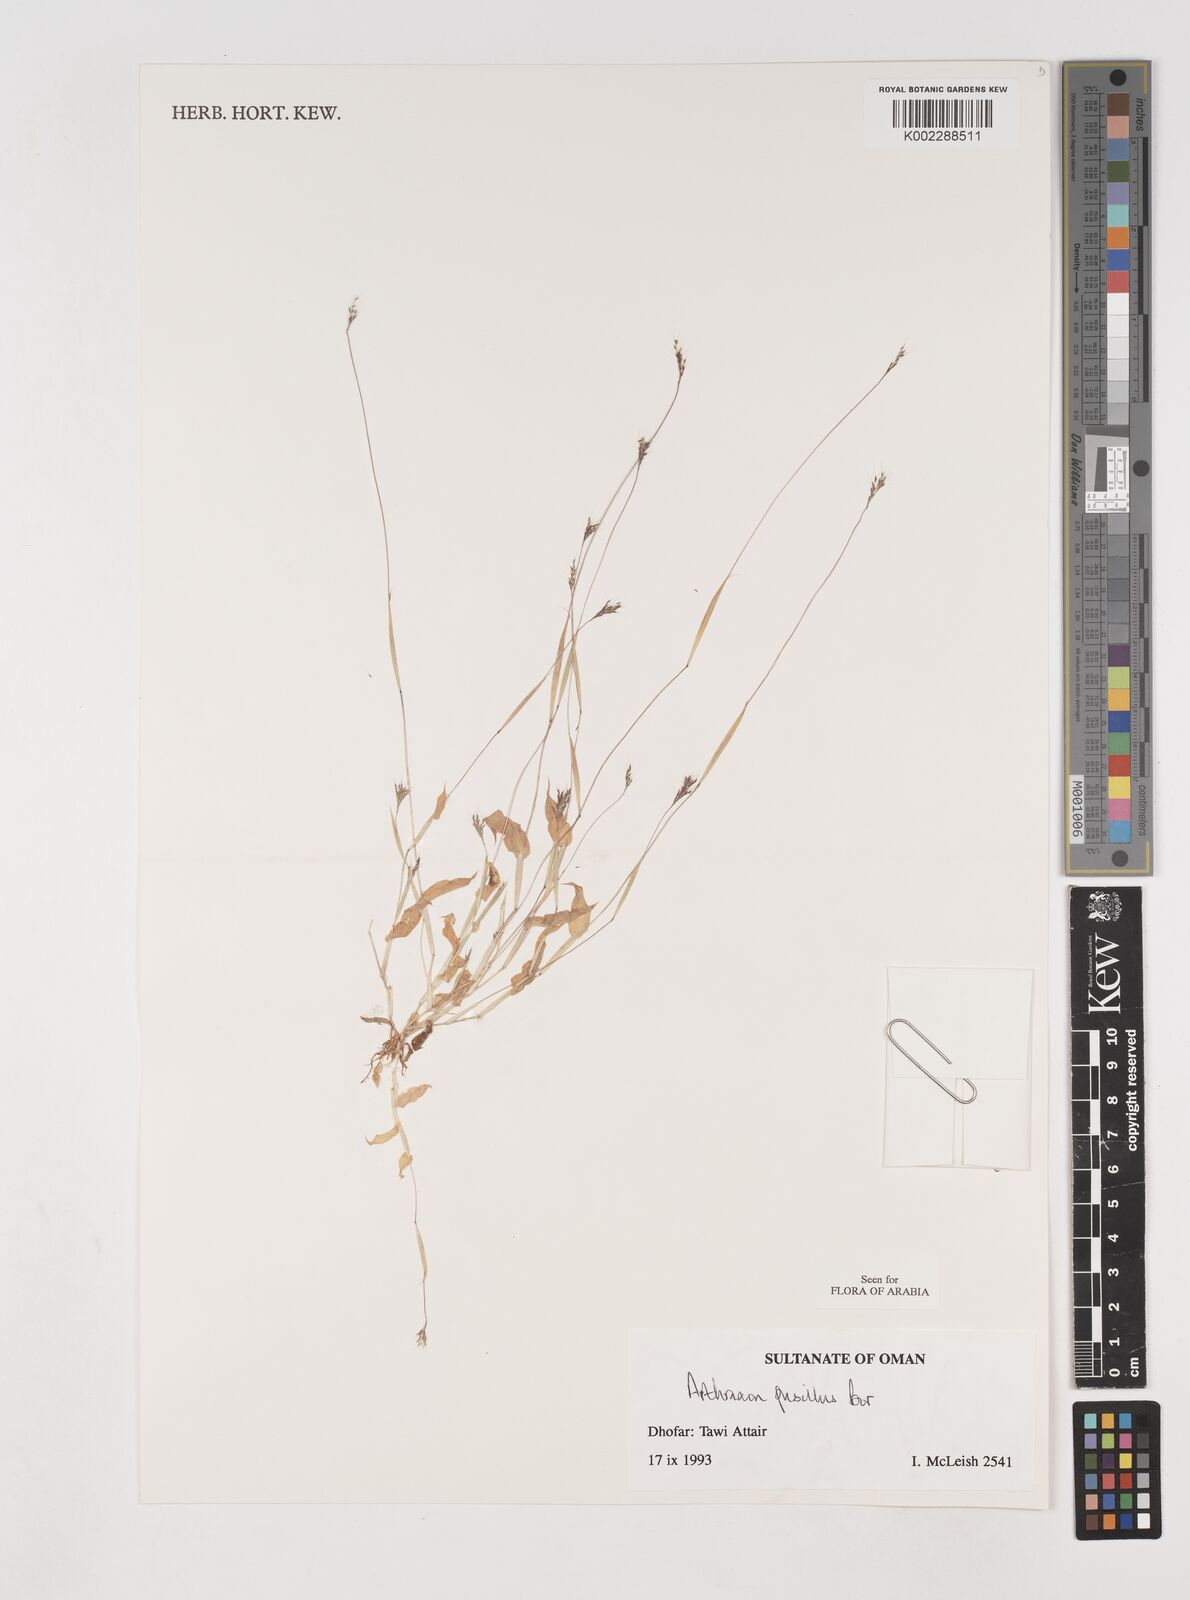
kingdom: Plantae
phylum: Tracheophyta
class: Liliopsida
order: Poales
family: Poaceae
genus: Arthraxon
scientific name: Arthraxon junnarensis
